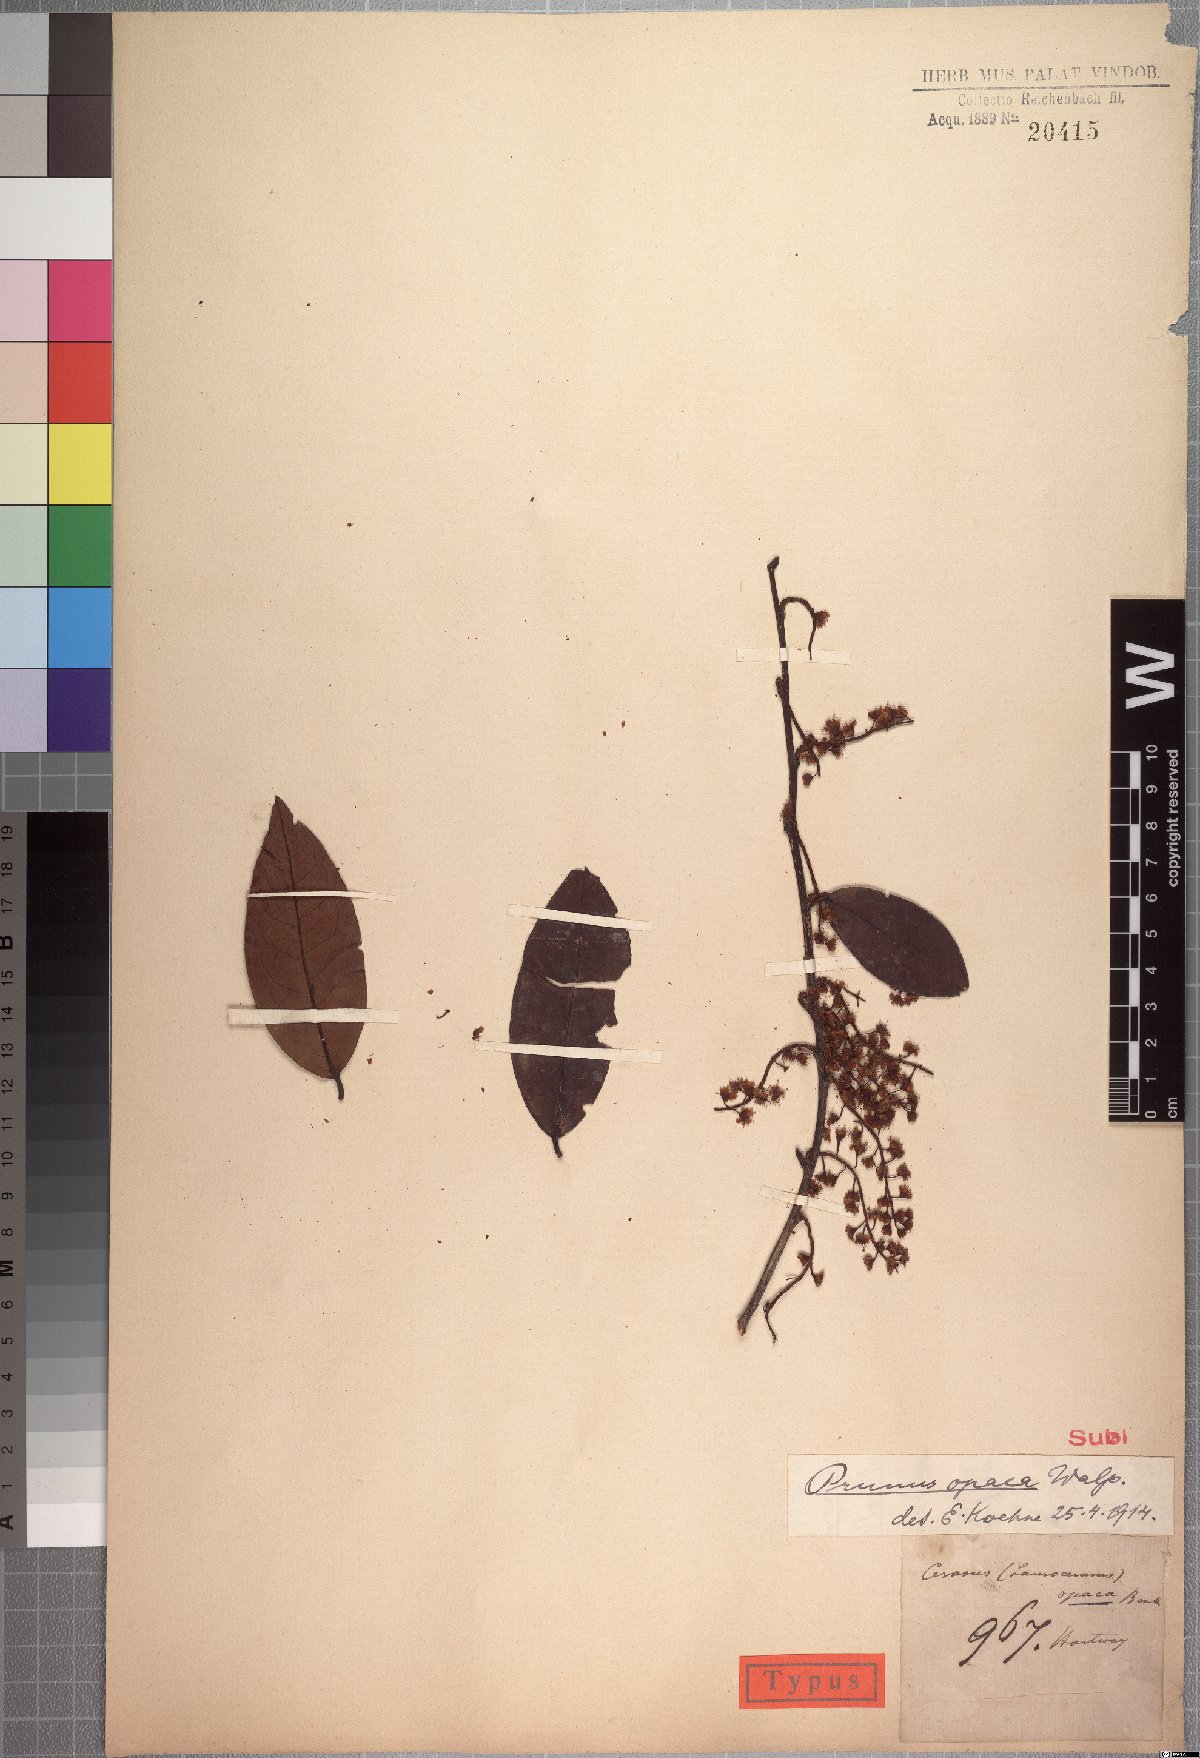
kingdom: Plantae
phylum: Tracheophyta
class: Magnoliopsida
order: Rosales
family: Rosaceae
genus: Prunus
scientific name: Prunus opaca
